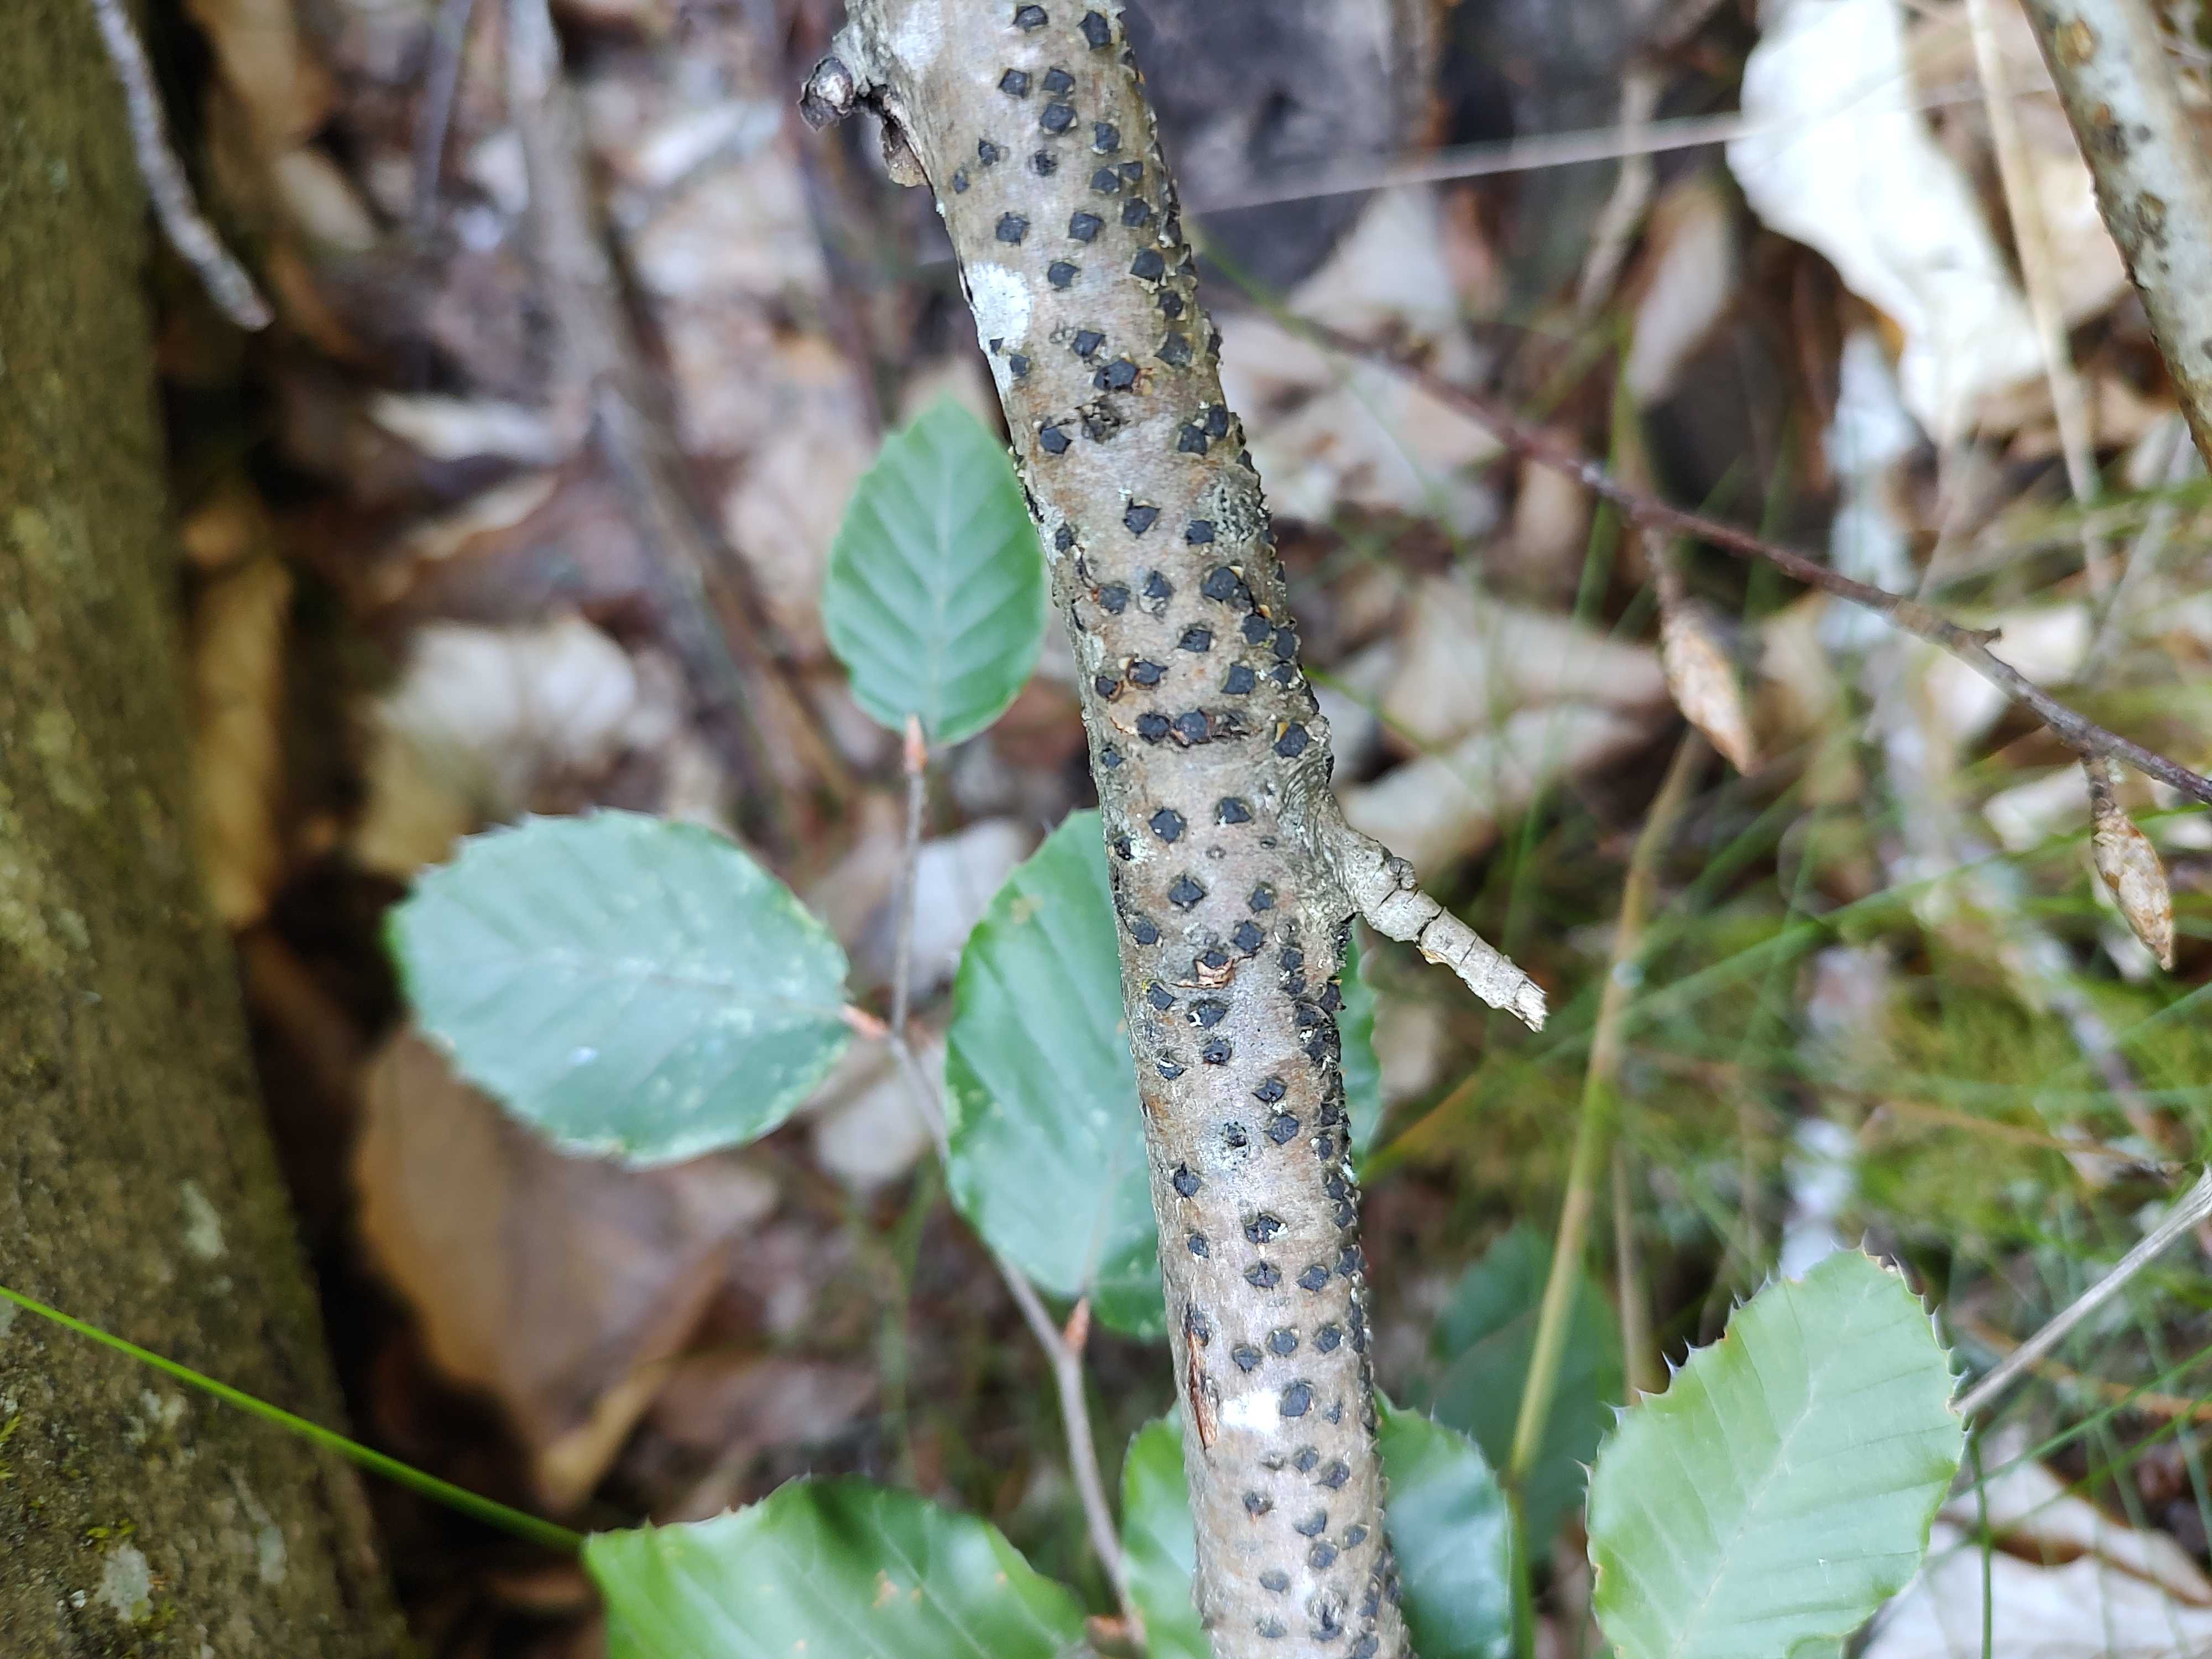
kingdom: Fungi
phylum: Ascomycota
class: Sordariomycetes
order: Xylariales
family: Diatrypaceae
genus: Diatrype
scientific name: Diatrype disciformis
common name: kant-kulskorpe
